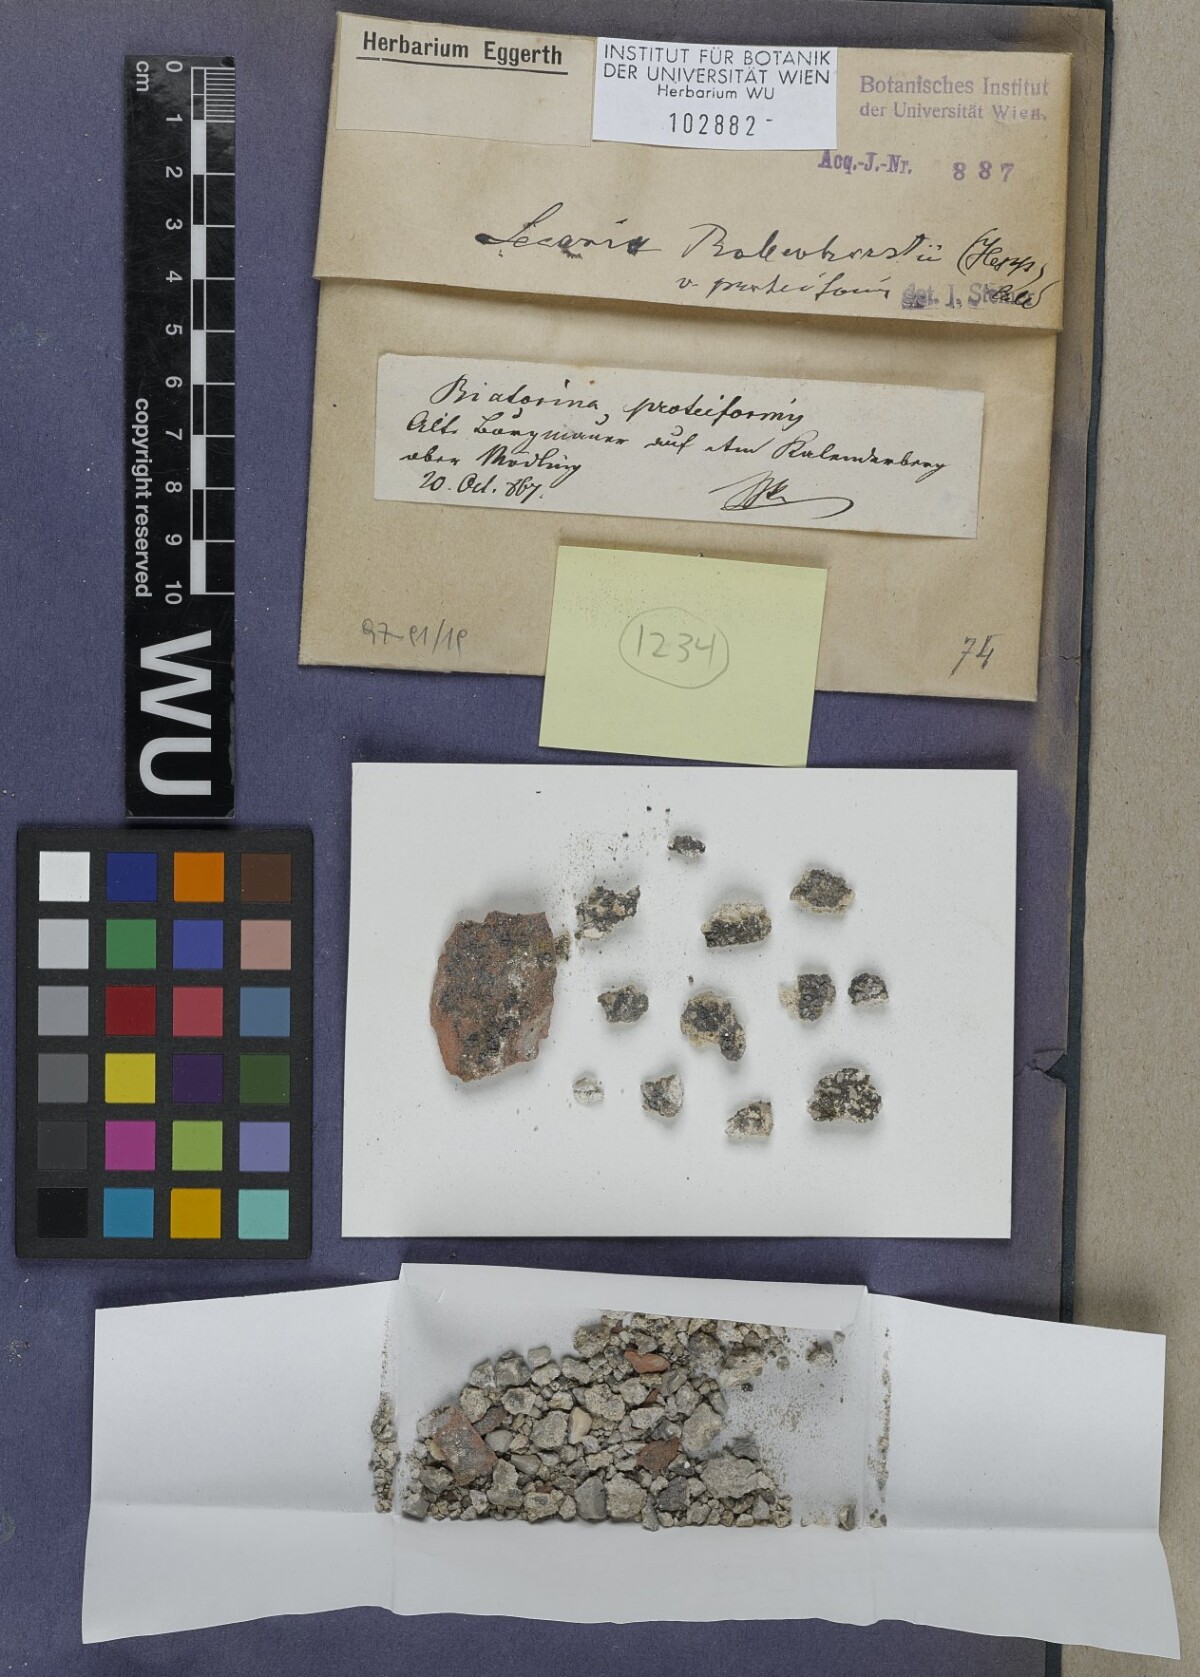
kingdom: Fungi
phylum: Ascomycota
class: Lecanoromycetes
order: Lecanorales
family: Ramalinaceae
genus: Lecania
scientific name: Lecania rabenhorstii
